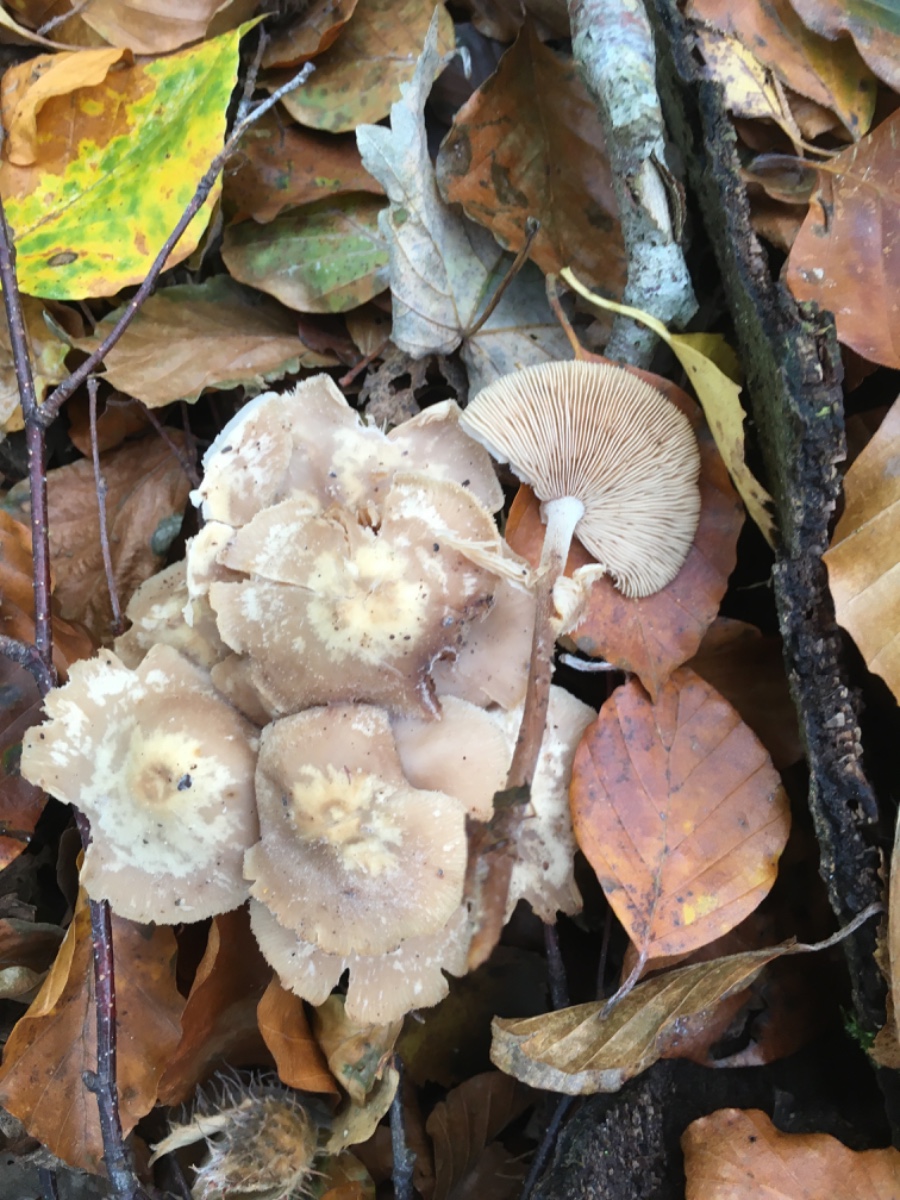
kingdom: Fungi
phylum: Basidiomycota
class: Agaricomycetes
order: Agaricales
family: Omphalotaceae
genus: Collybiopsis
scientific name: Collybiopsis confluens
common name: knippe-fladhat
